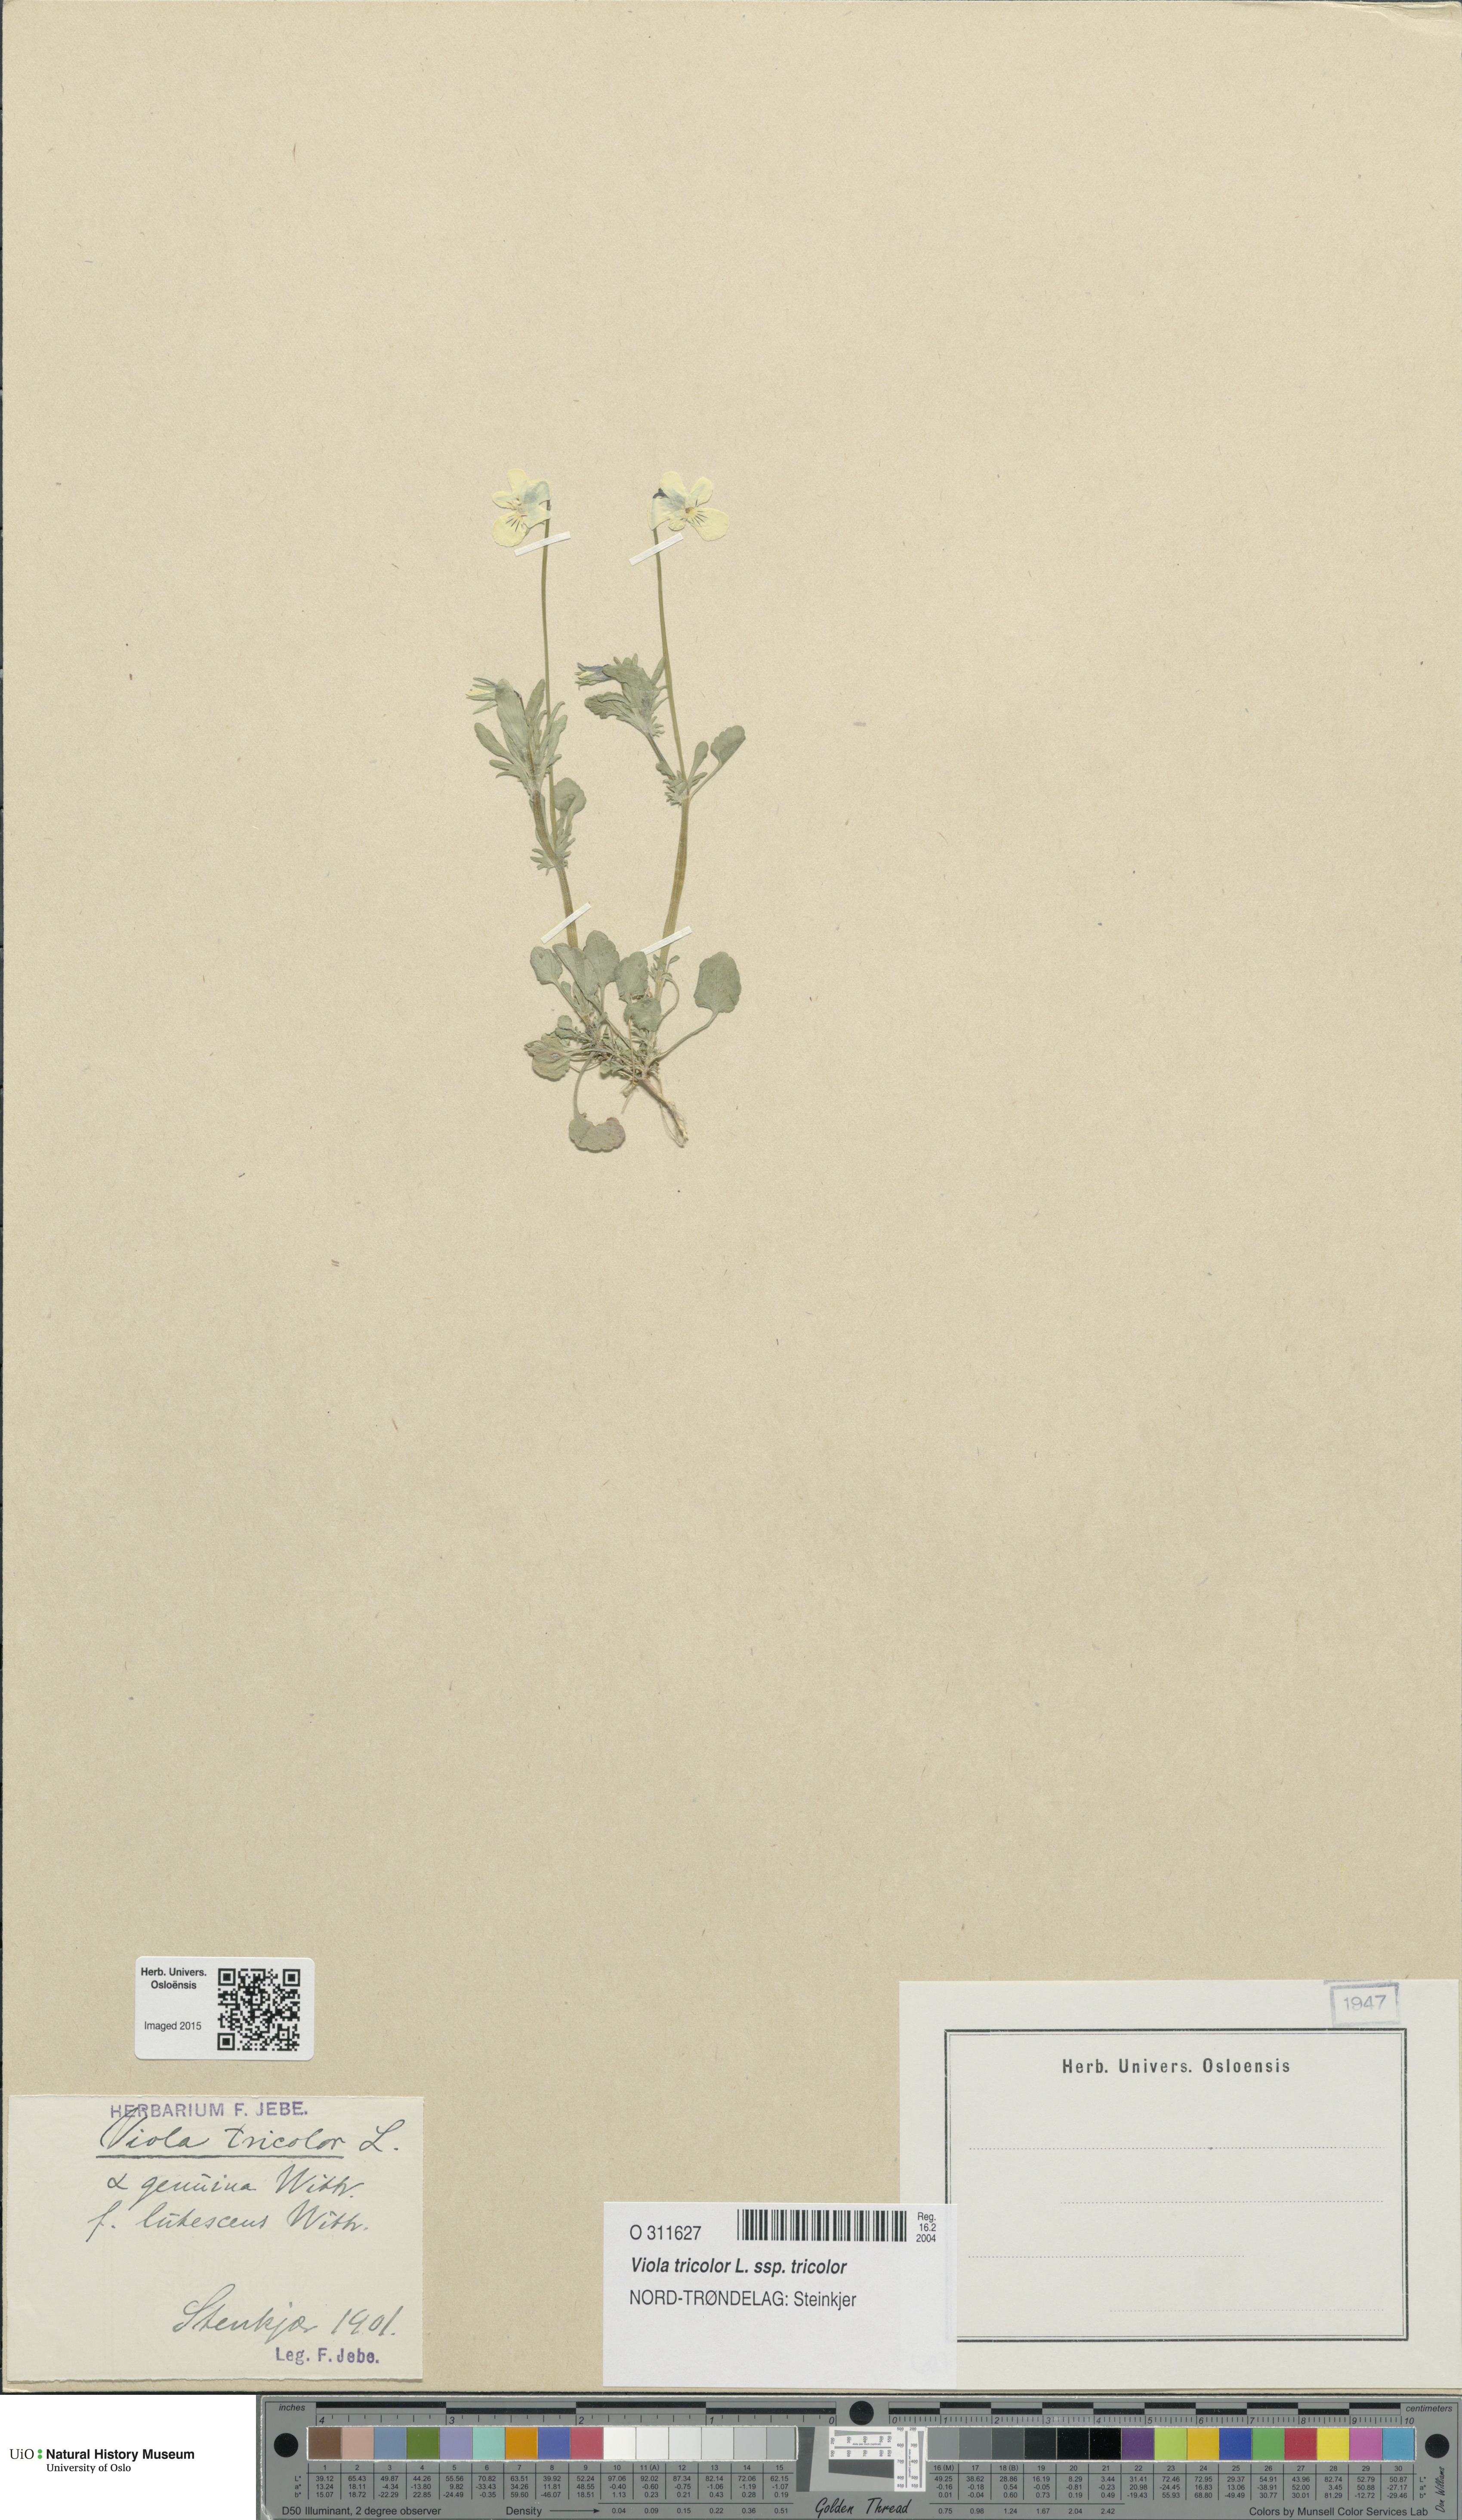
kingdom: Plantae
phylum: Tracheophyta
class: Magnoliopsida
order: Malpighiales
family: Violaceae
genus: Viola
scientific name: Viola tricolor
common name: Pansy
